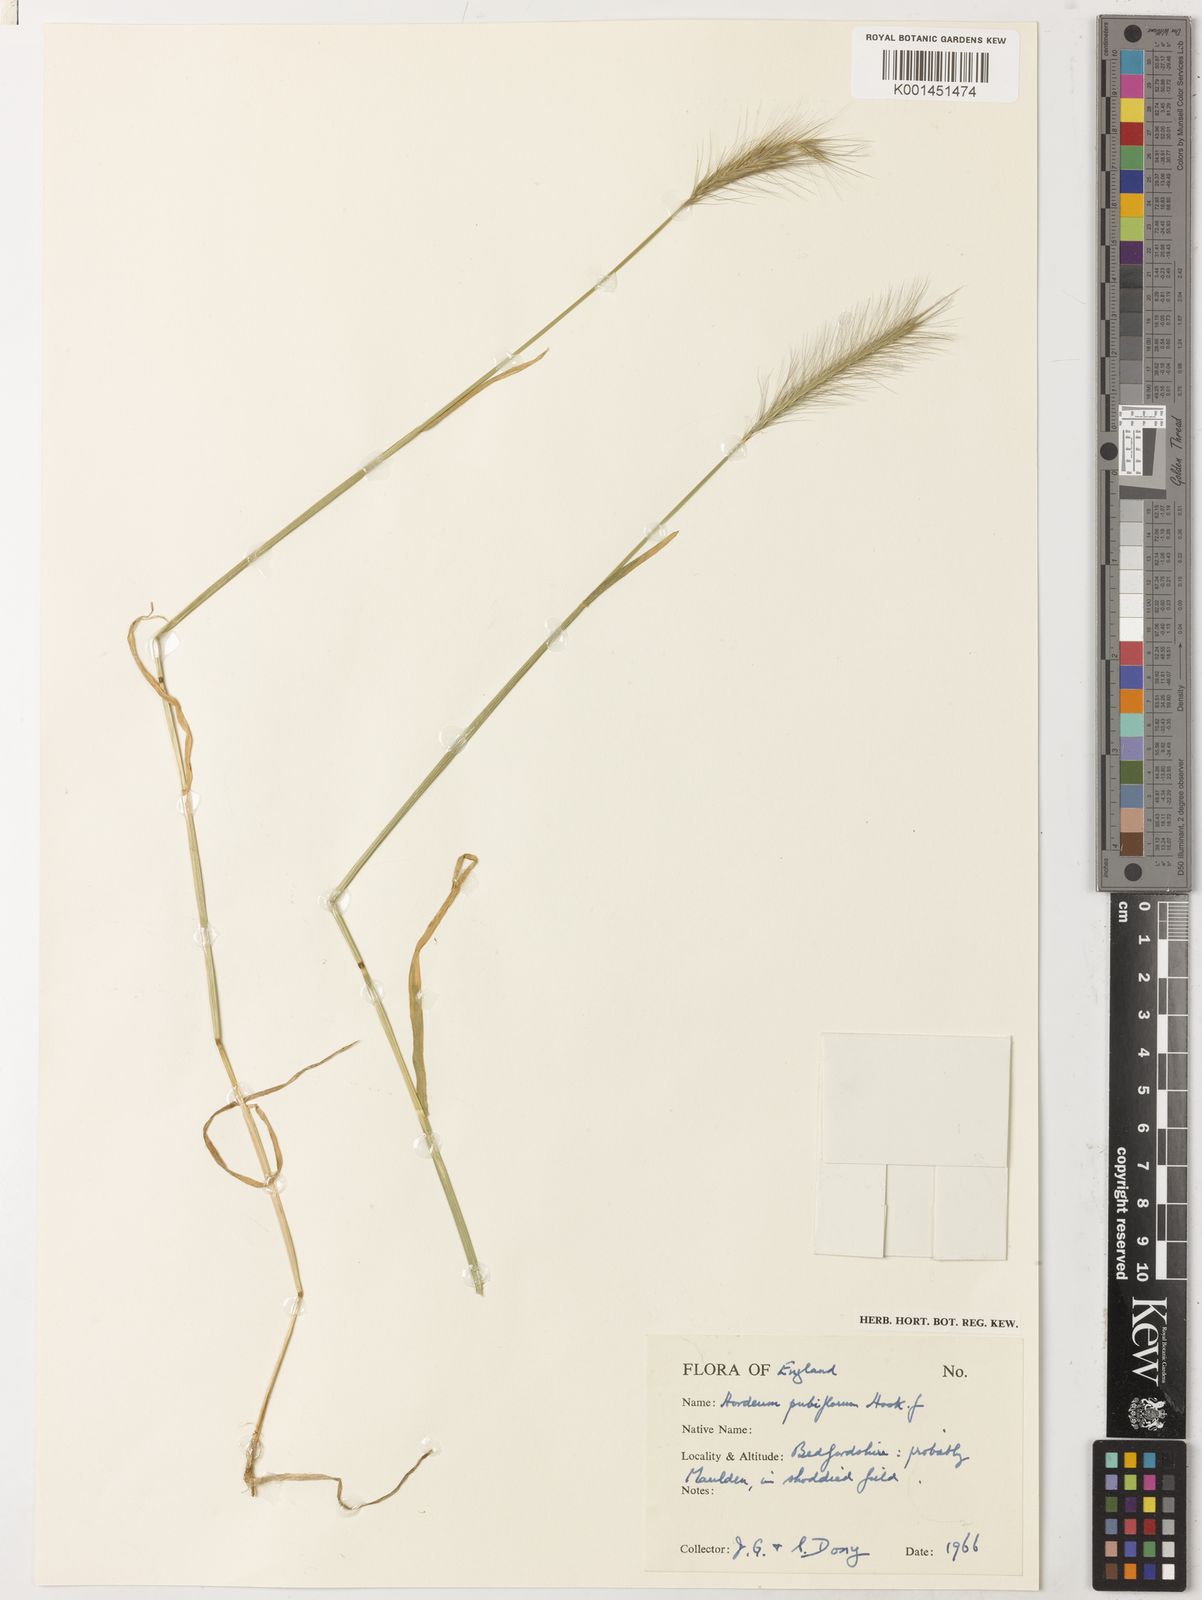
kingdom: Plantae
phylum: Tracheophyta
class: Liliopsida
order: Poales
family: Poaceae
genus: Hordeum
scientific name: Hordeum pubiflorum
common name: Antarctic barley
